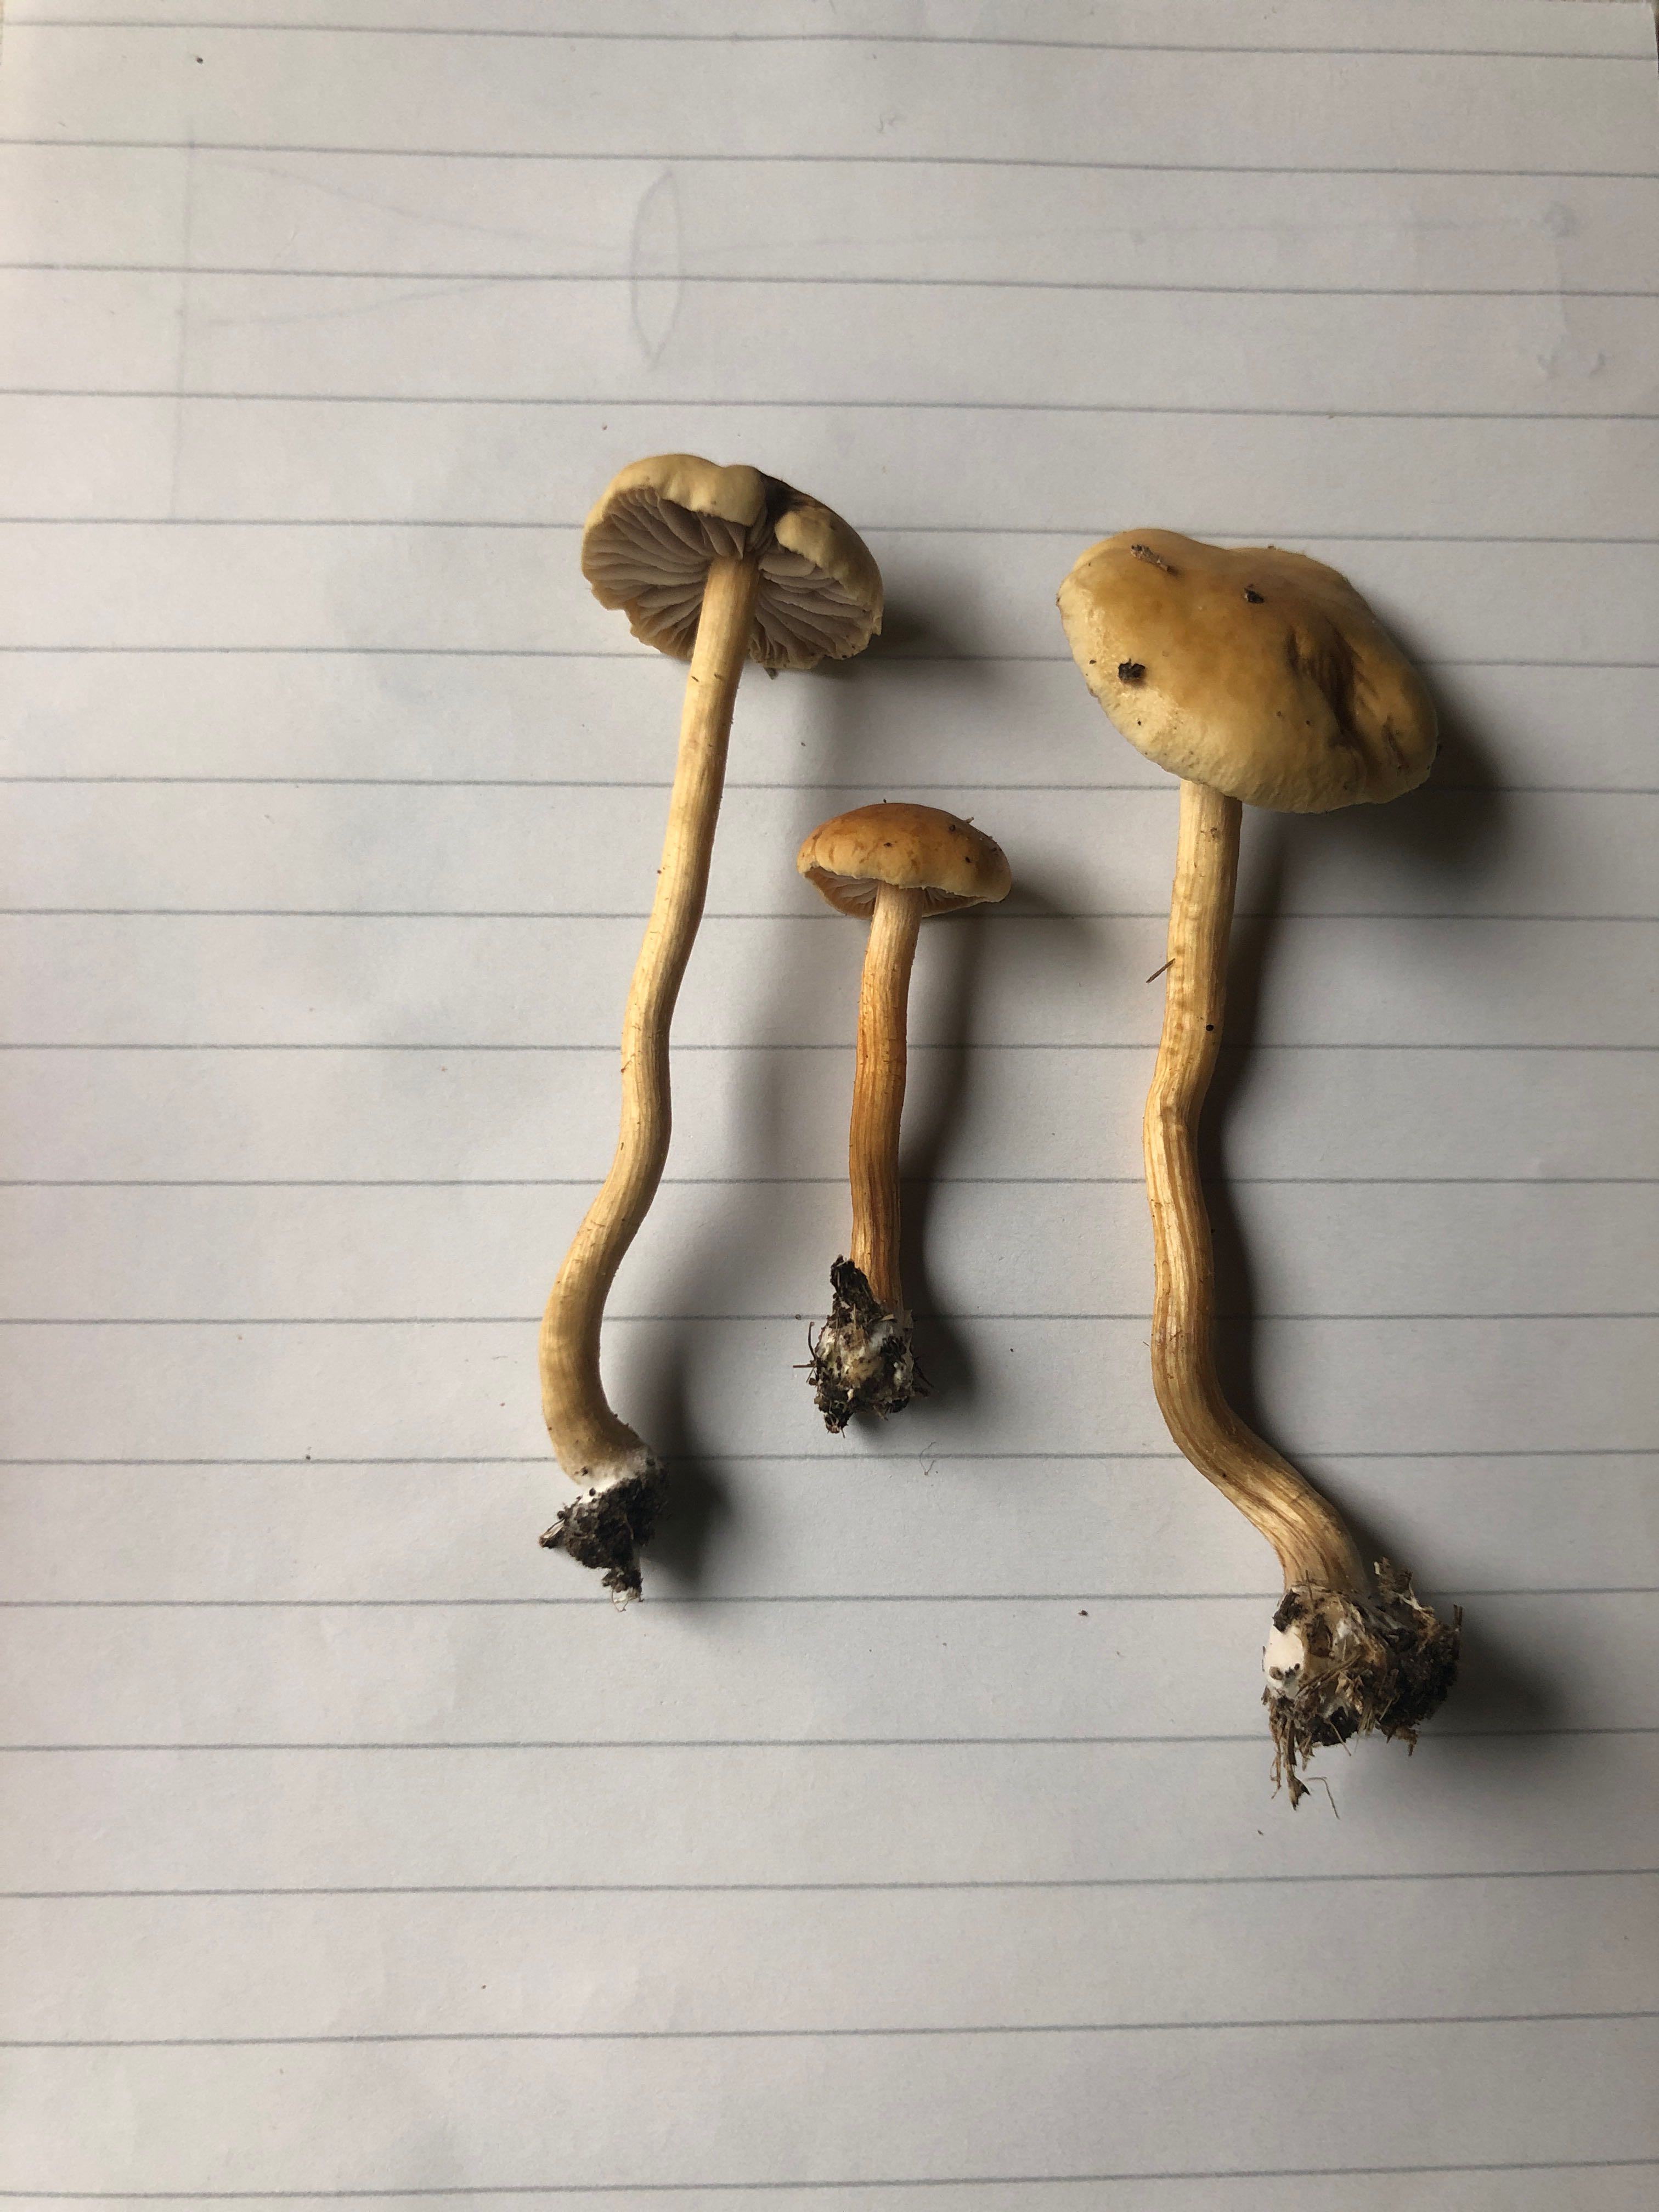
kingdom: Fungi
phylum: Basidiomycota
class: Agaricomycetes
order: Agaricales
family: Strophariaceae
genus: Agrocybe
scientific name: Agrocybe fimicola
